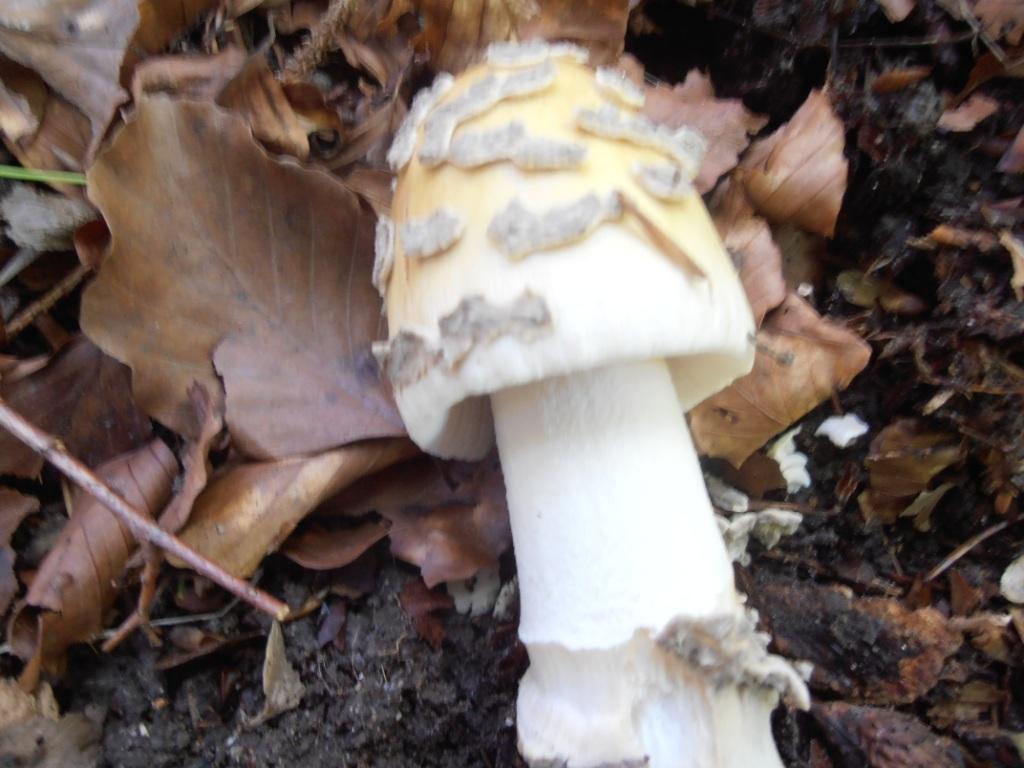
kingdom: Fungi
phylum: Basidiomycota
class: Agaricomycetes
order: Agaricales
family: Amanitaceae
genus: Amanita
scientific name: Amanita ceciliae
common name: stor kam-fluesvamp
